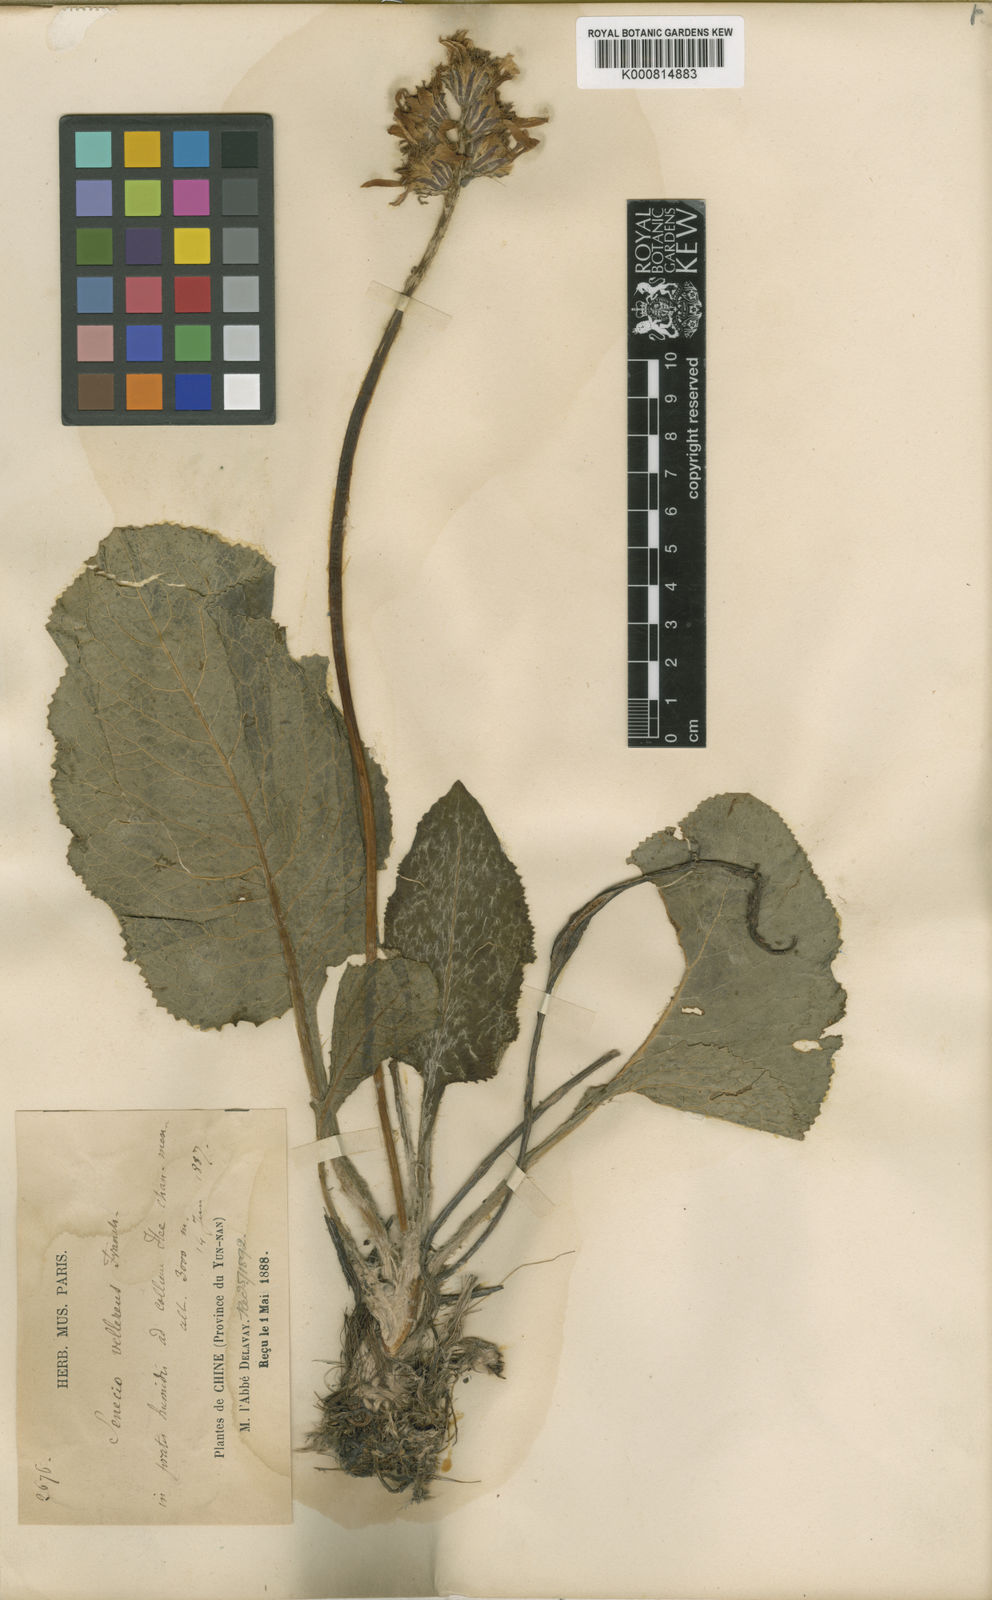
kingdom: Plantae
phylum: Tracheophyta
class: Magnoliopsida
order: Asterales
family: Asteraceae
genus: Ligularia
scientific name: Ligularia vellerea
